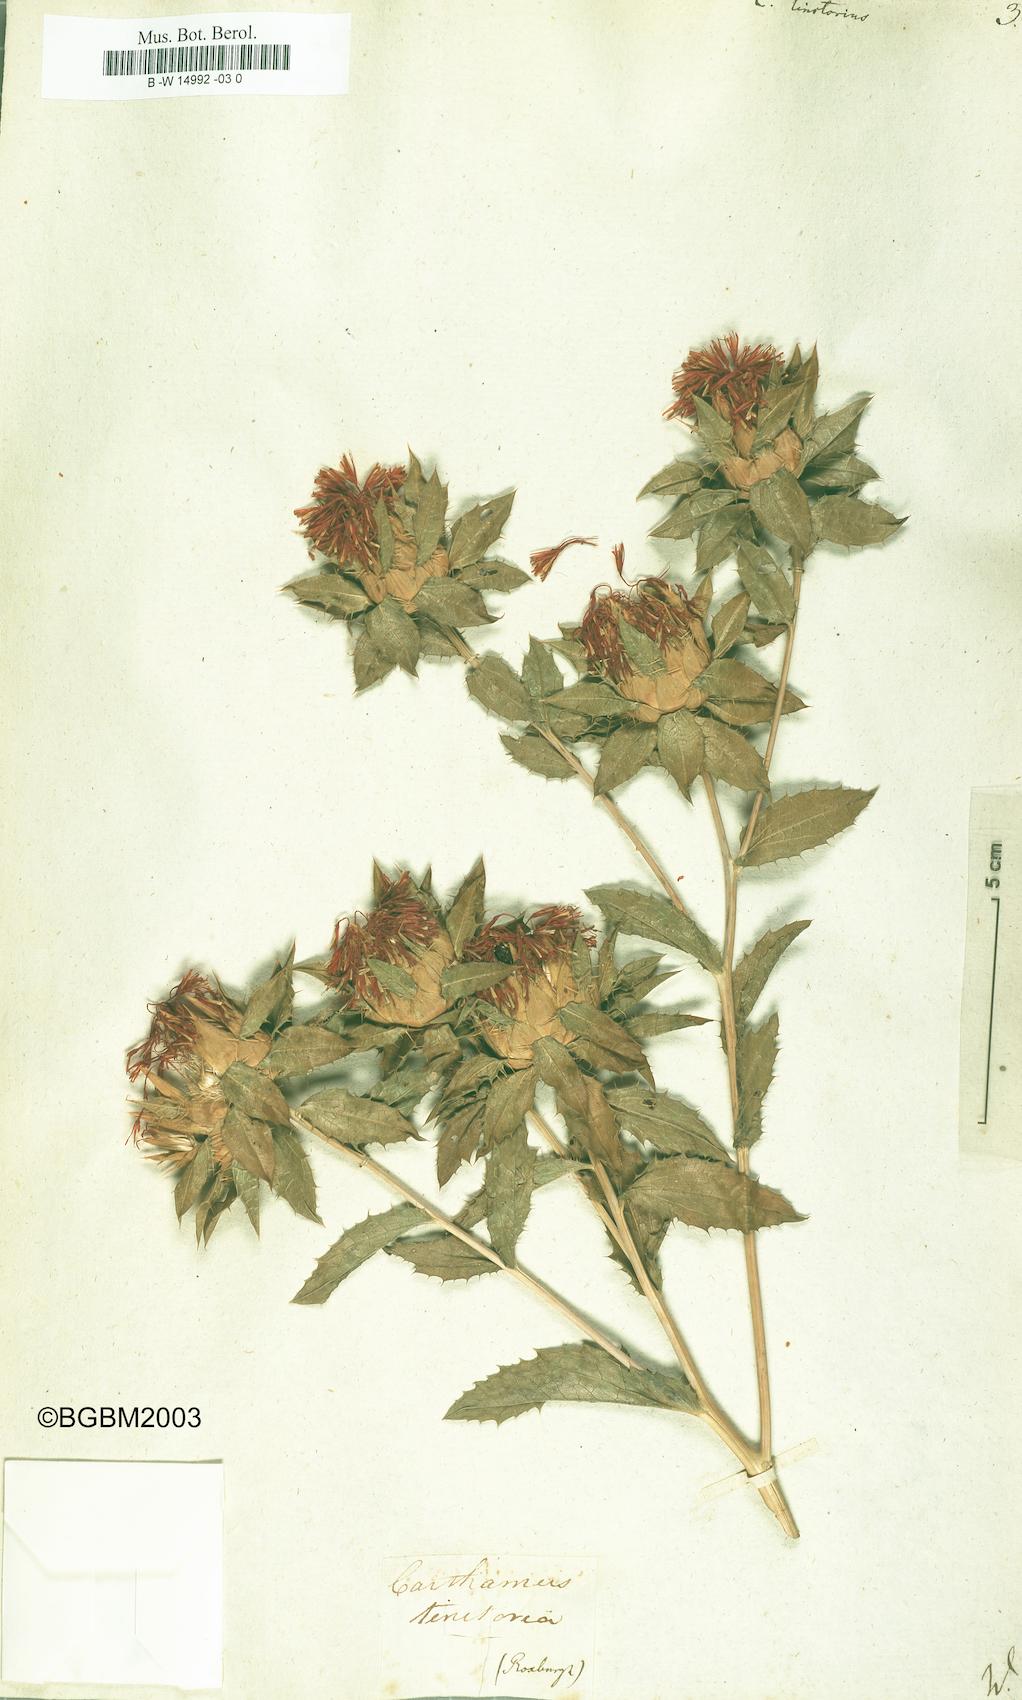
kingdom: Plantae
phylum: Tracheophyta
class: Magnoliopsida
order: Asterales
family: Asteraceae
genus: Carthamus
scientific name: Carthamus tinctorius
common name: Safflower
